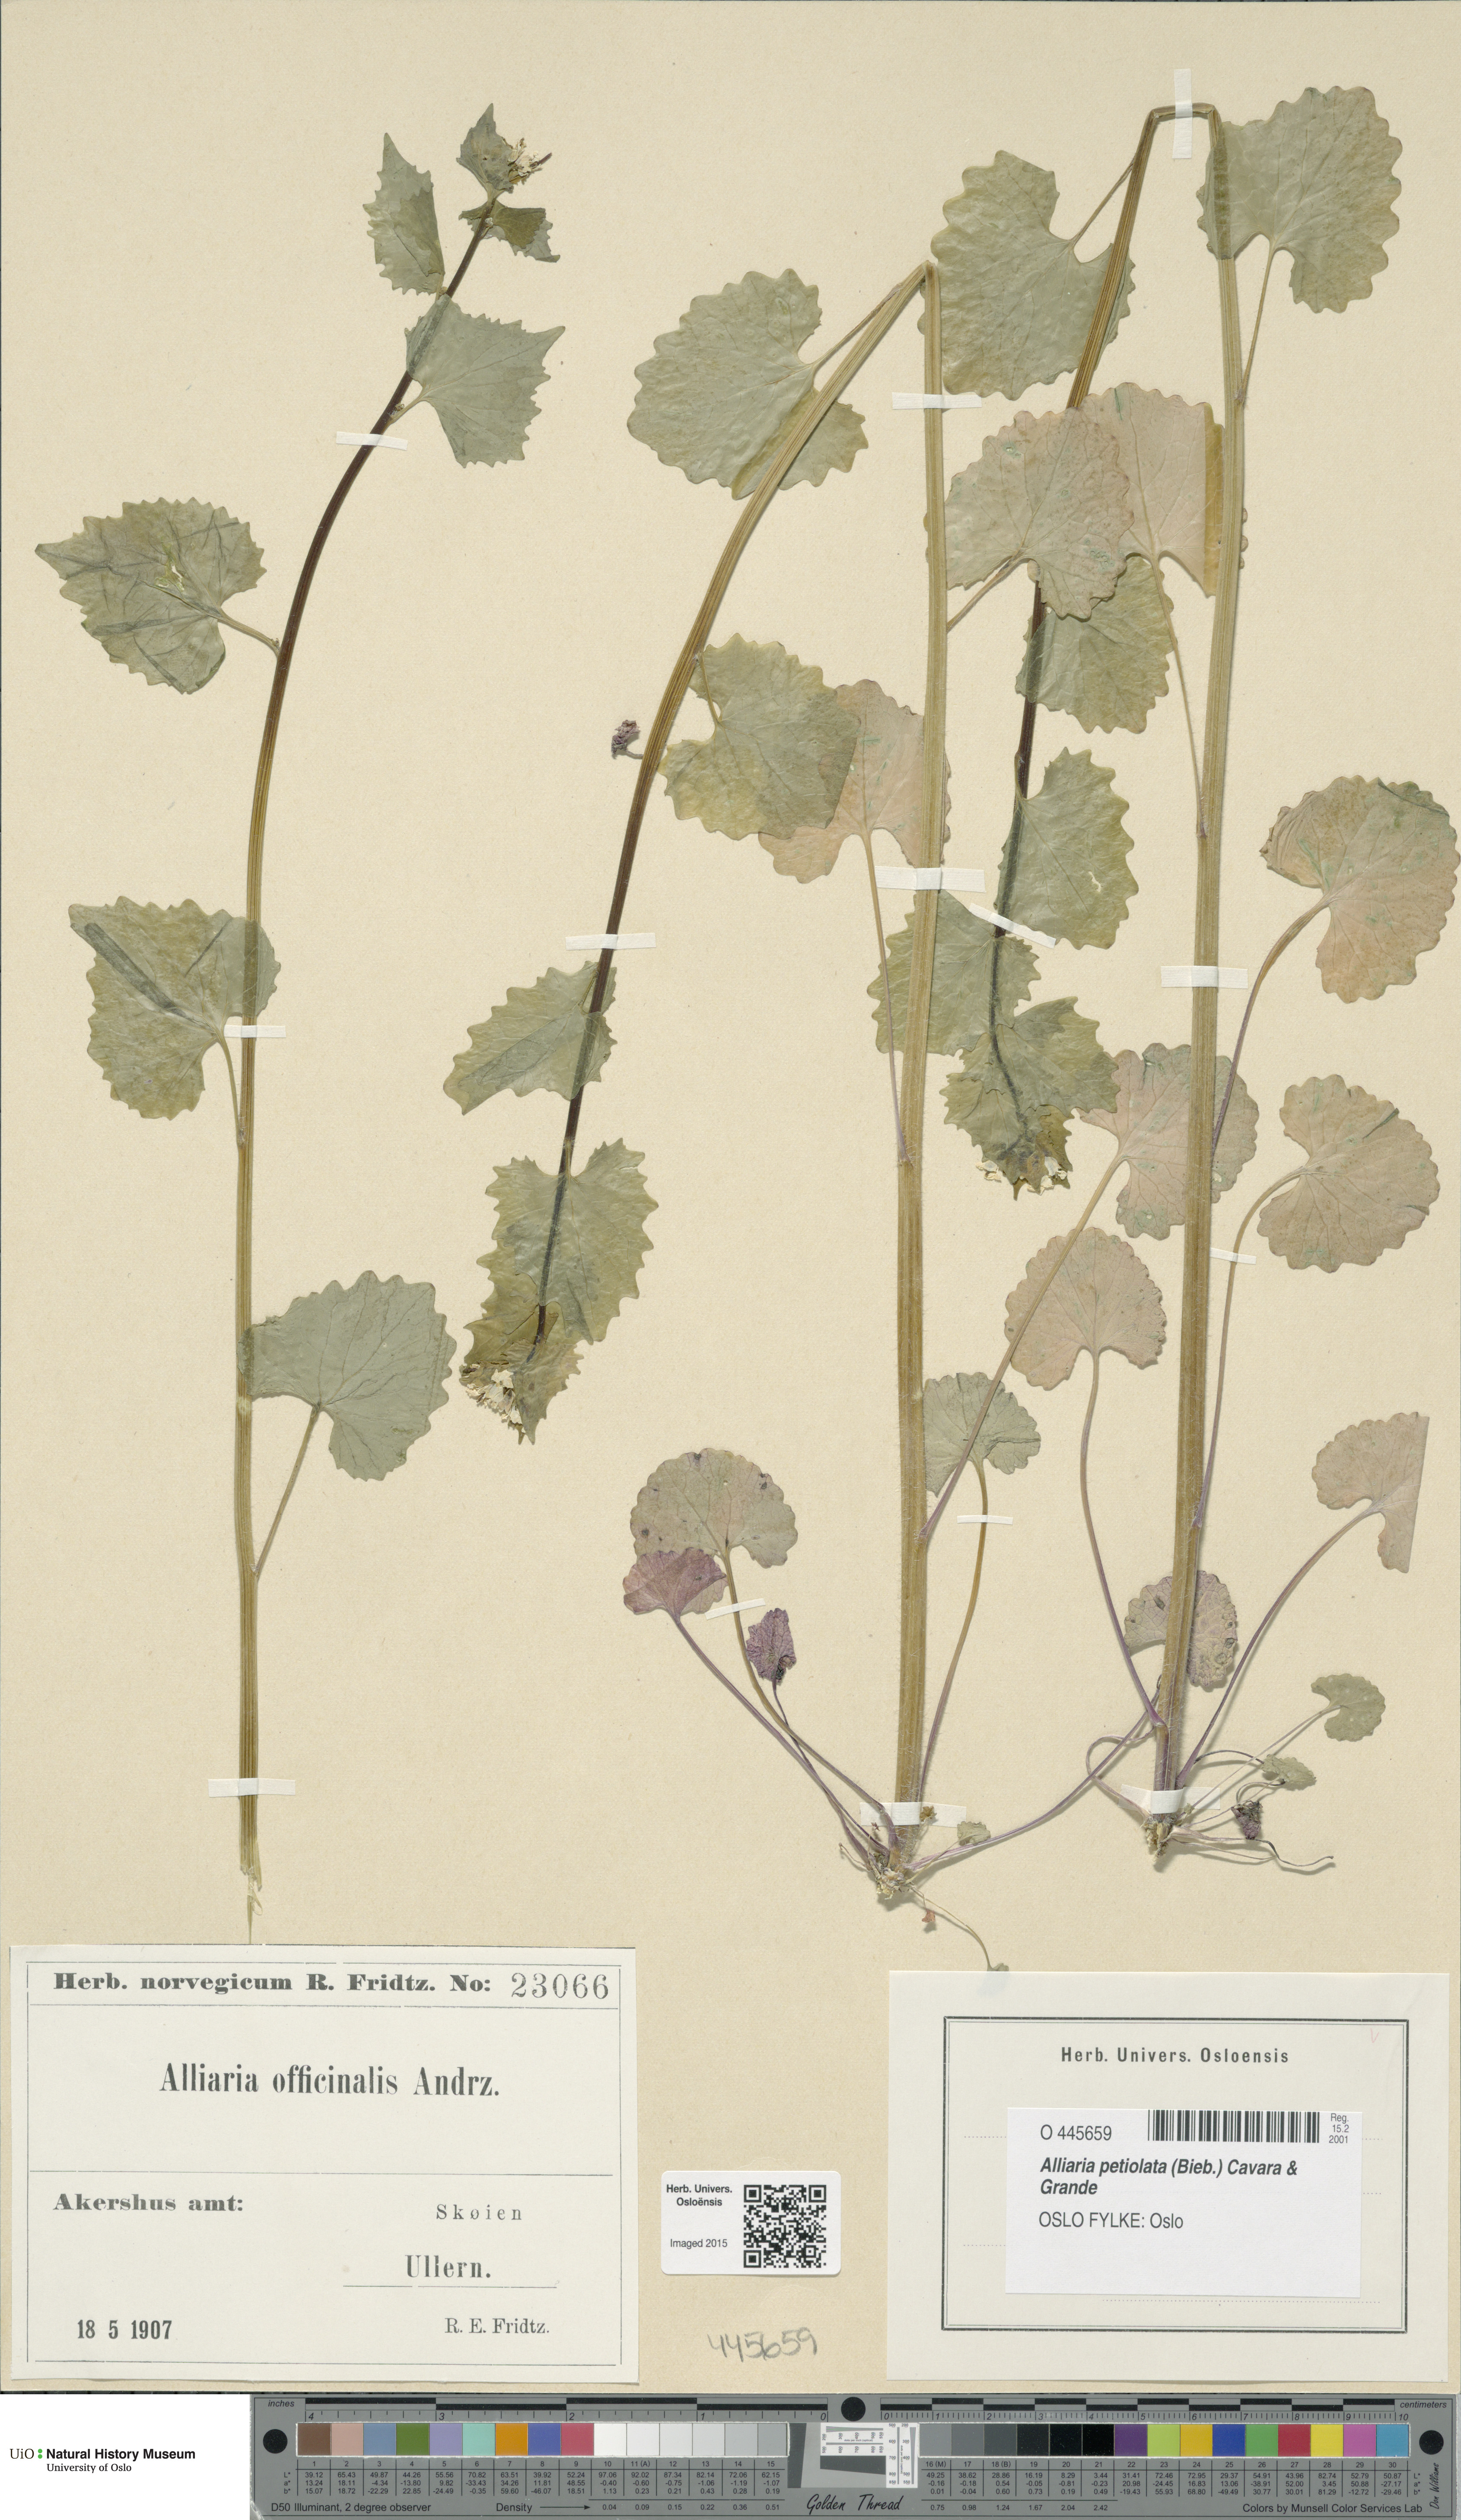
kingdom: Plantae
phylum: Tracheophyta
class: Magnoliopsida
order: Brassicales
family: Brassicaceae
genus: Alliaria
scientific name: Alliaria petiolata
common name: Garlic mustard
